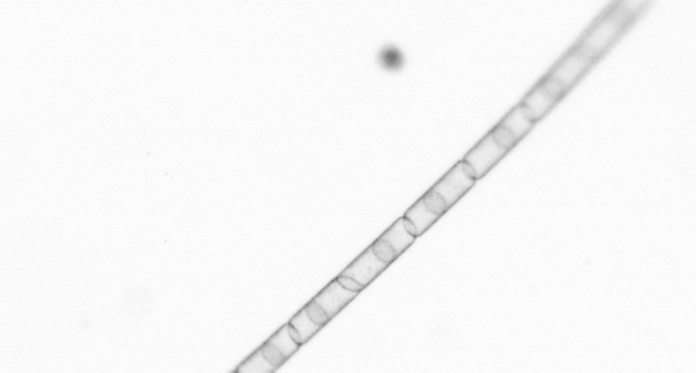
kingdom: Chromista
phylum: Ochrophyta
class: Bacillariophyceae
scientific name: Bacillariophyceae
